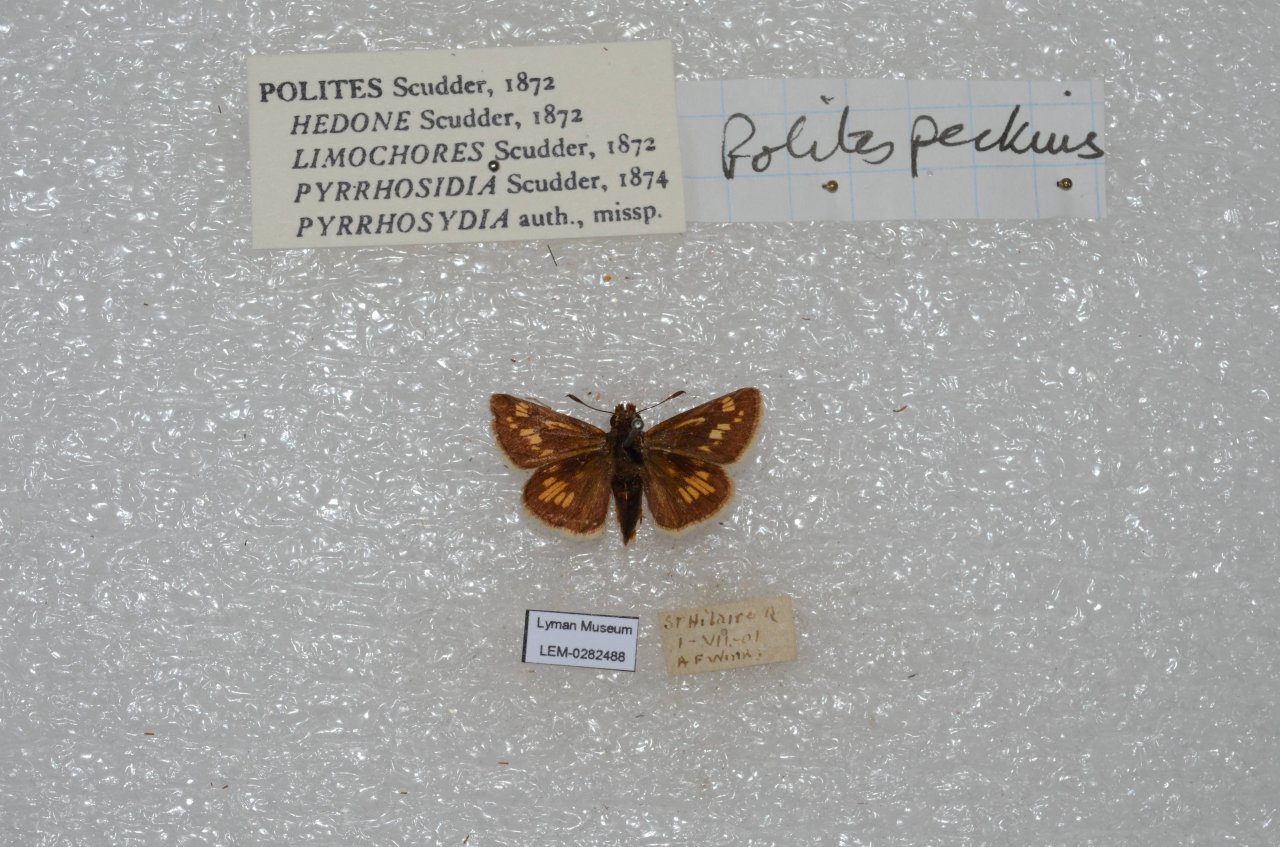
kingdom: Animalia
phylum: Arthropoda
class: Insecta
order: Lepidoptera
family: Hesperiidae
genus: Polites
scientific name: Polites coras
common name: Peck's Skipper
